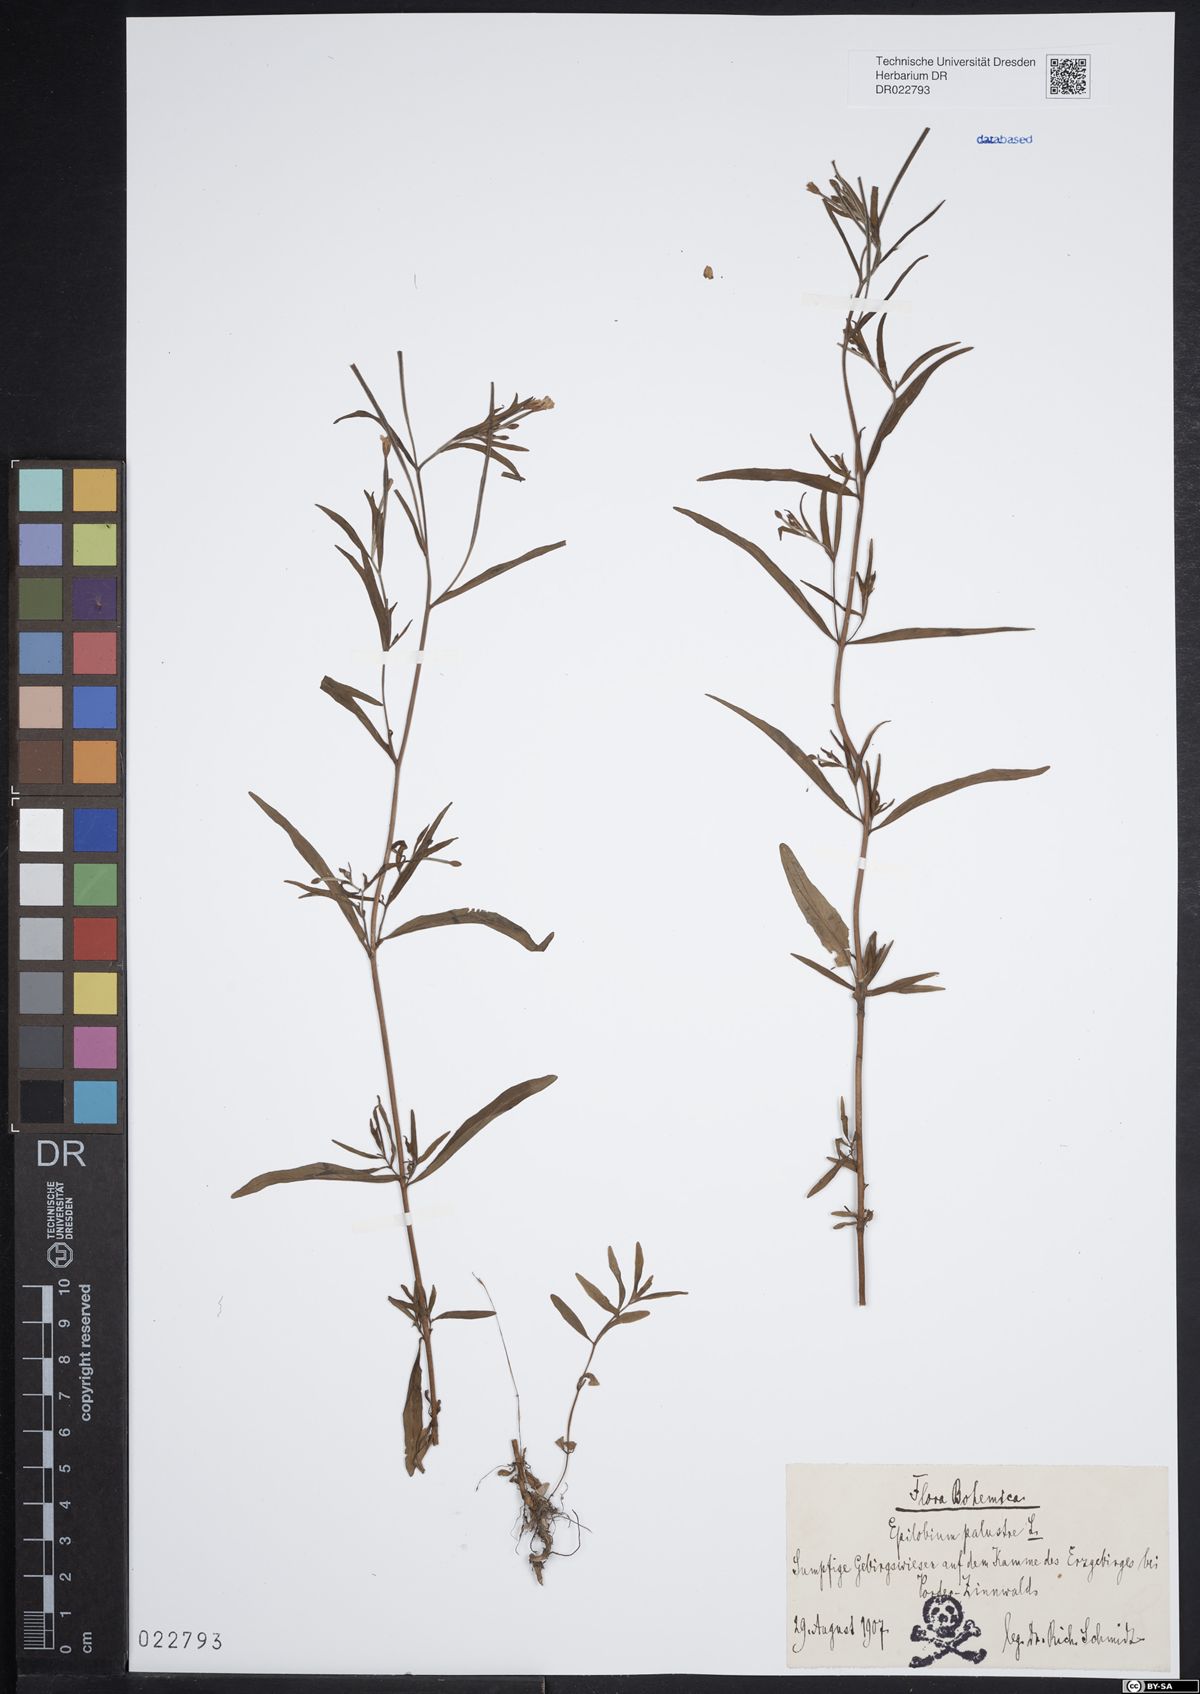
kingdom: Plantae
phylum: Tracheophyta
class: Magnoliopsida
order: Myrtales
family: Onagraceae
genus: Epilobium
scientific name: Epilobium palustre
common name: Marsh willowherb
